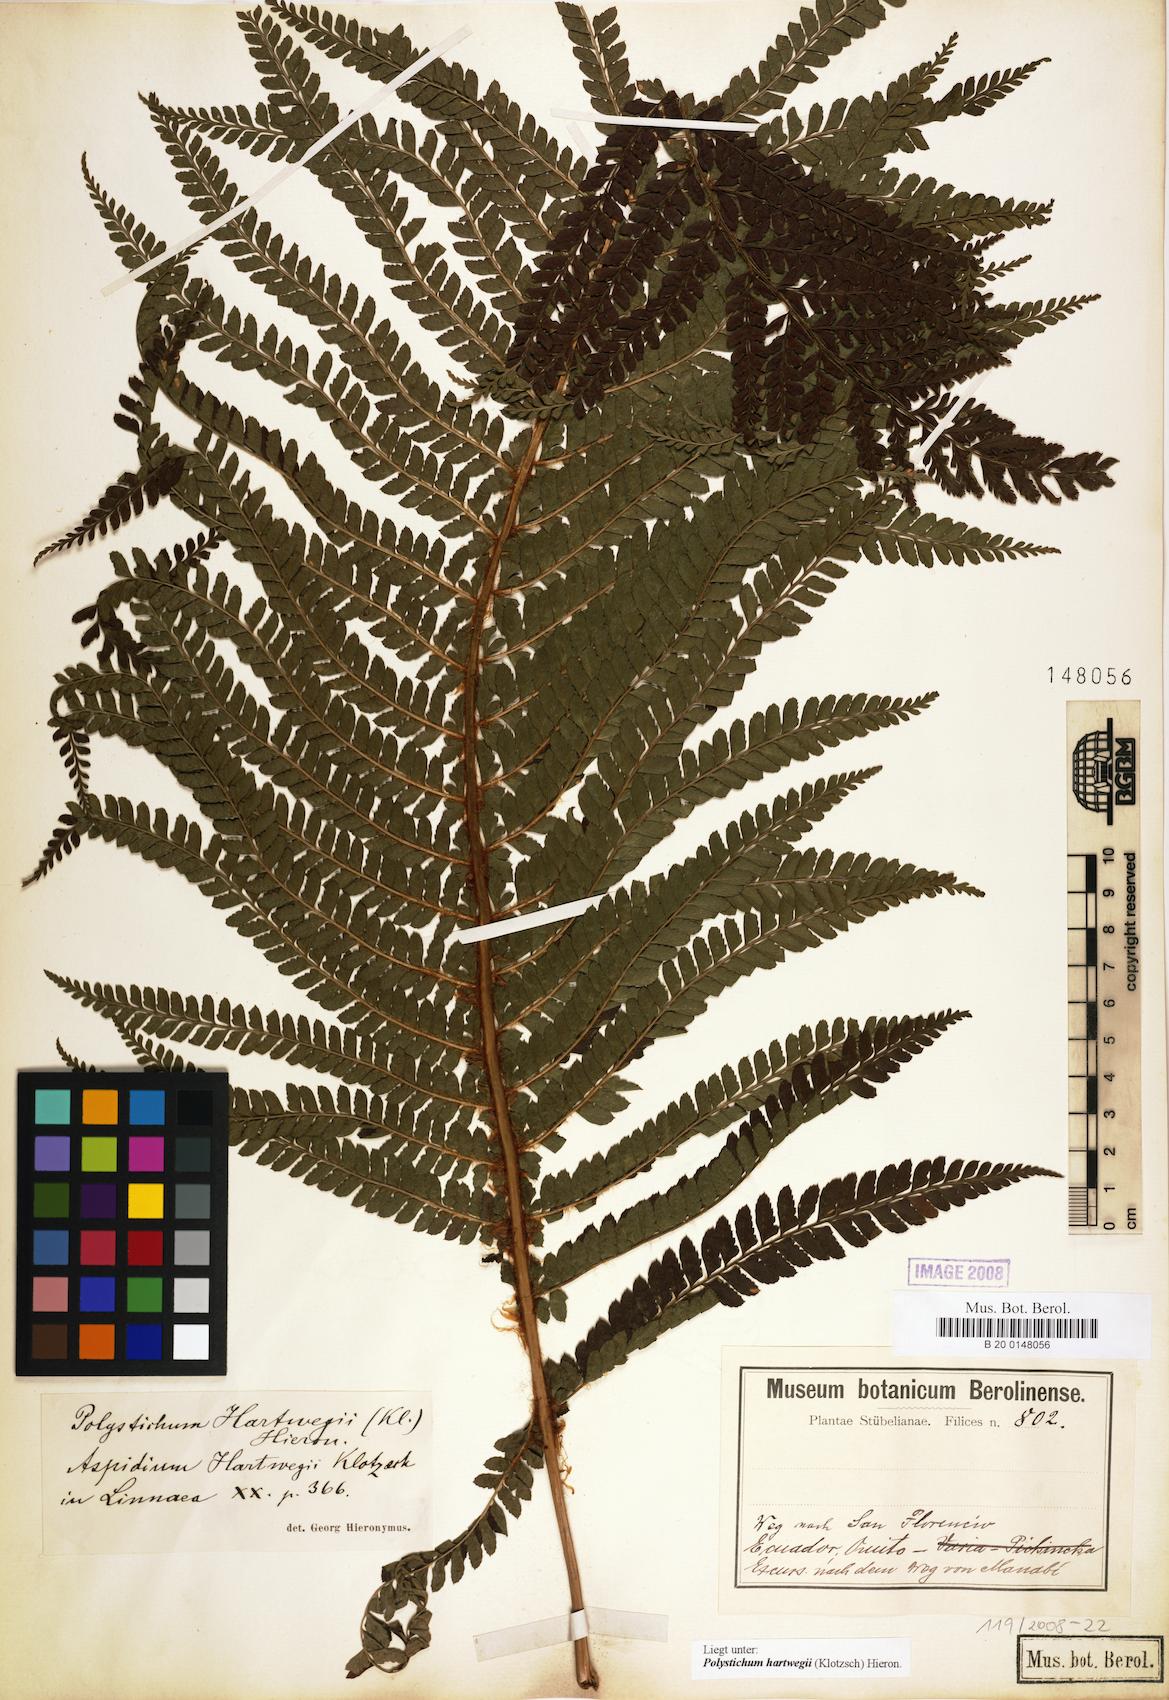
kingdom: Plantae
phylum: Tracheophyta
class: Polypodiopsida
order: Polypodiales
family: Dryopteridaceae
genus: Polystichum
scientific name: Polystichum hartwegii
